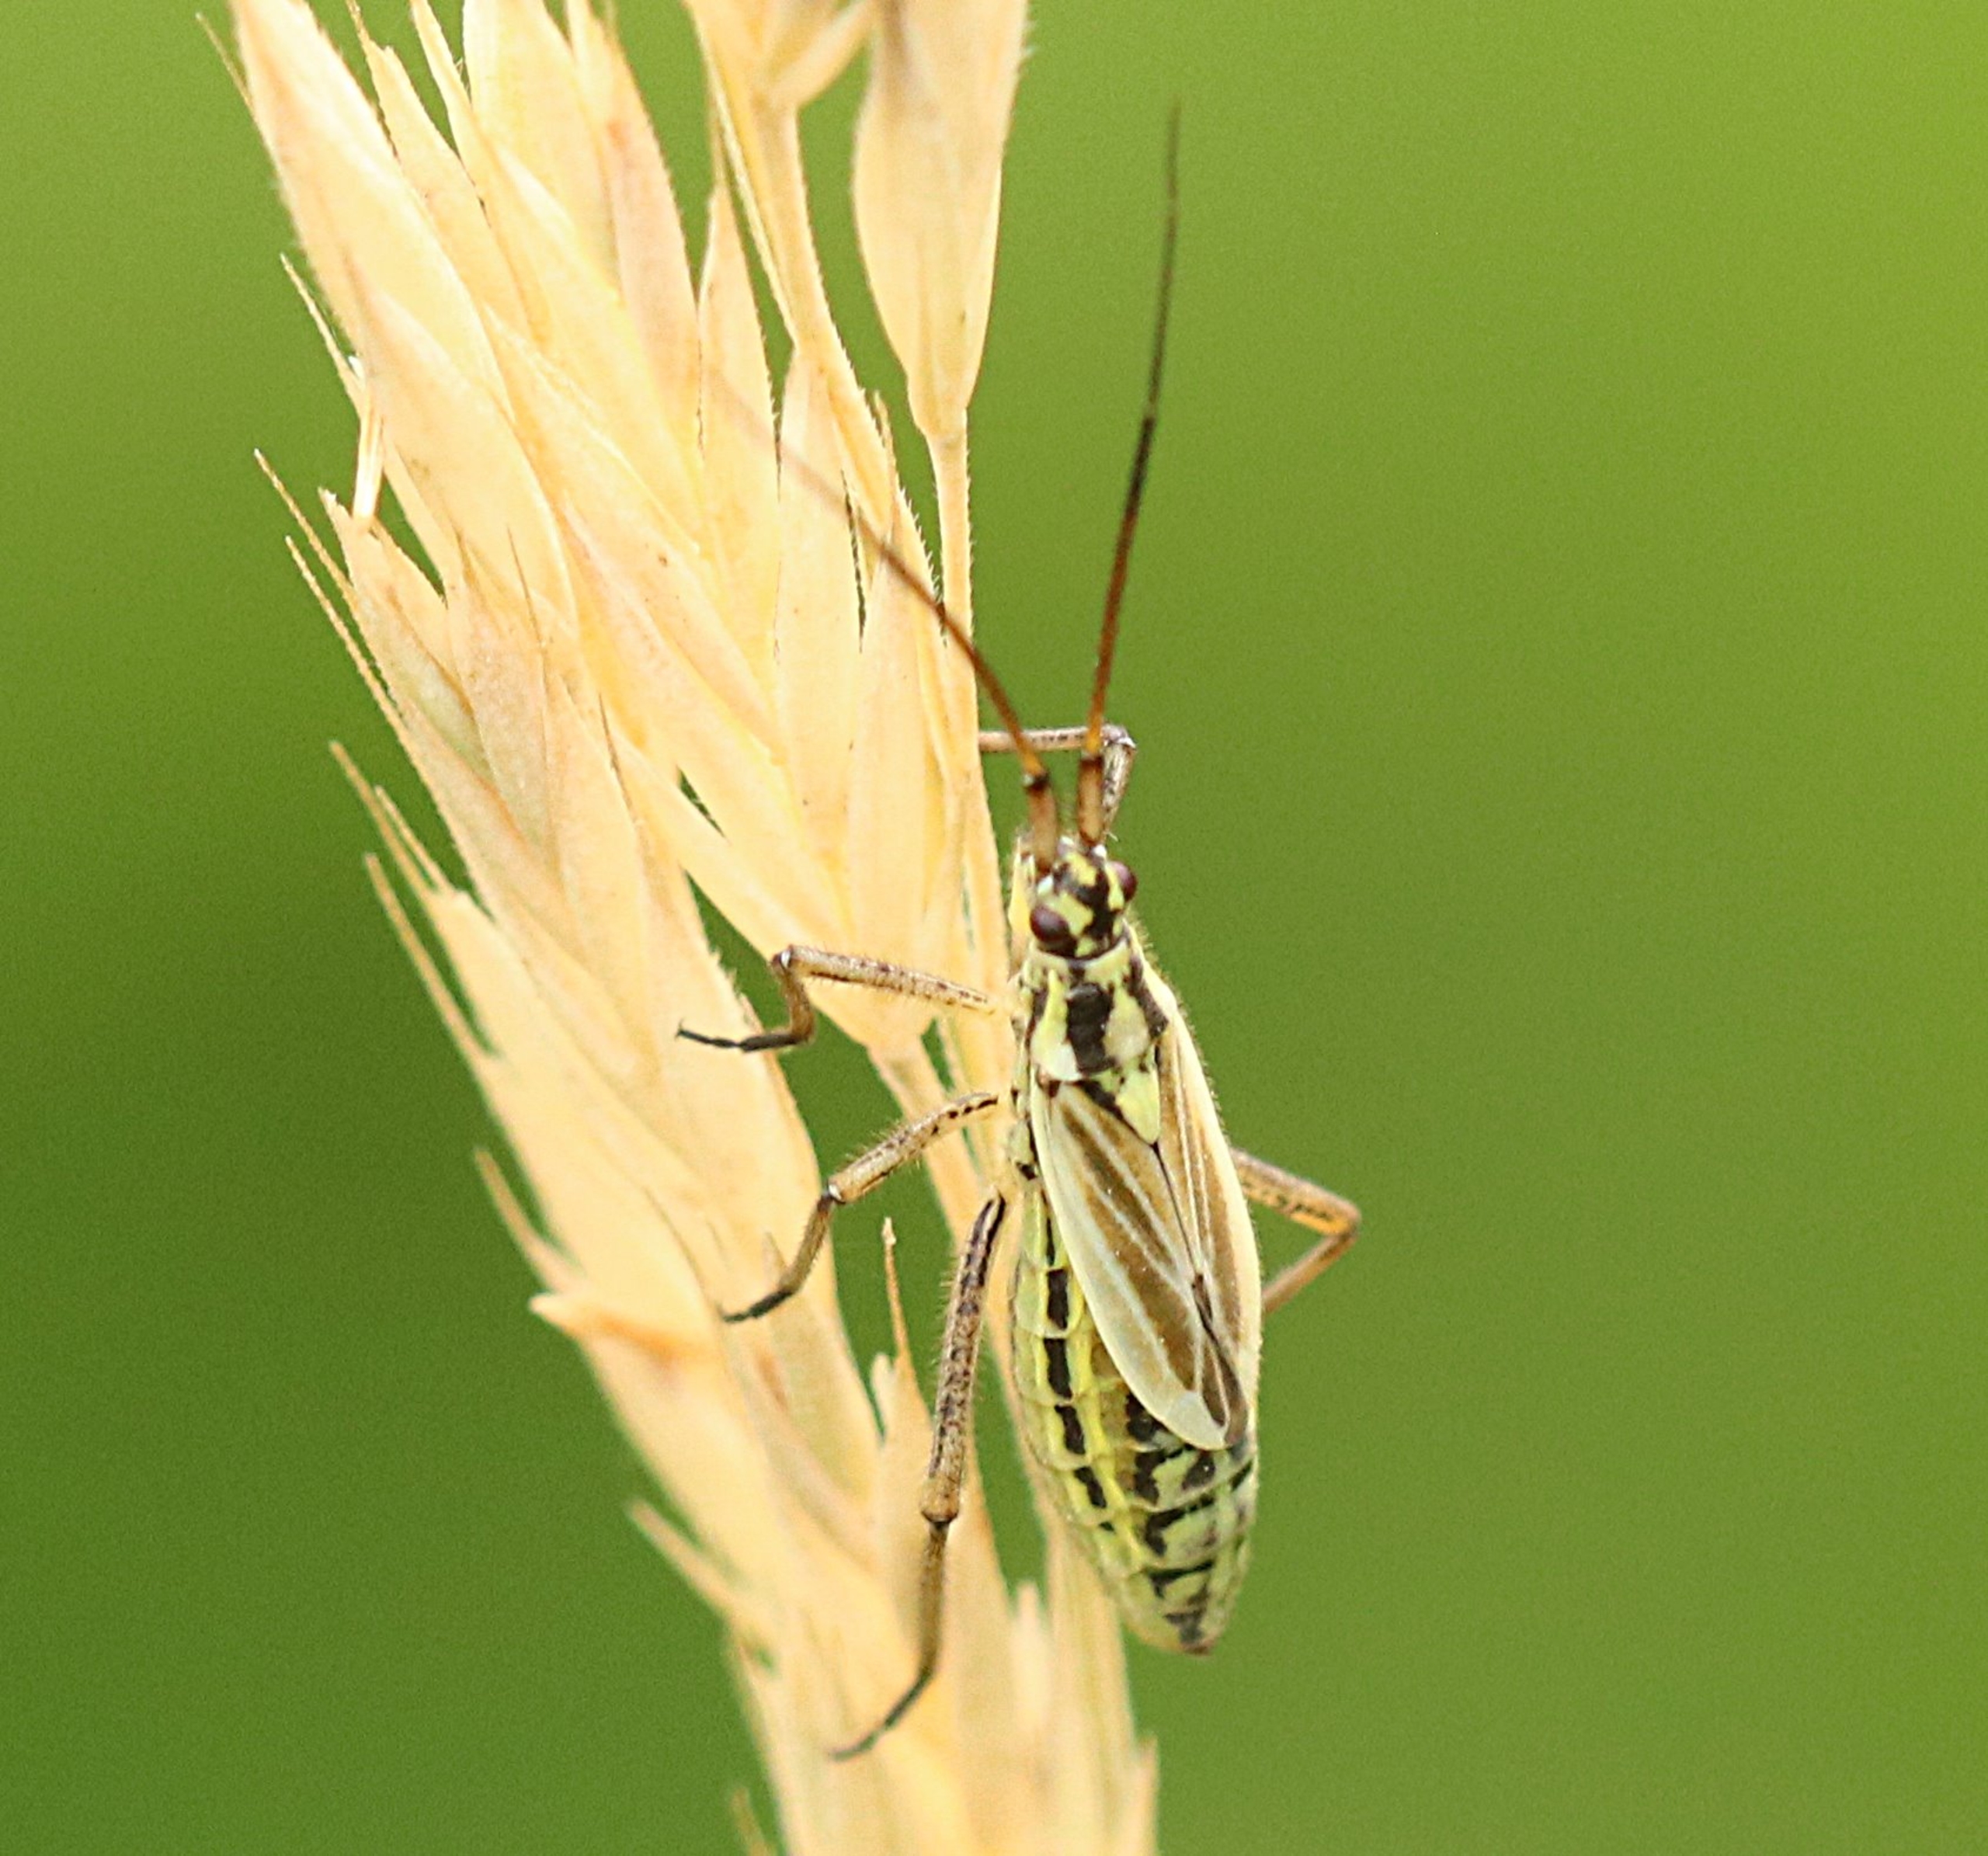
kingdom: Animalia
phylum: Arthropoda
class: Insecta
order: Hemiptera
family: Miridae
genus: Leptopterna
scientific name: Leptopterna dolabrata
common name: Almindelig græstæge
